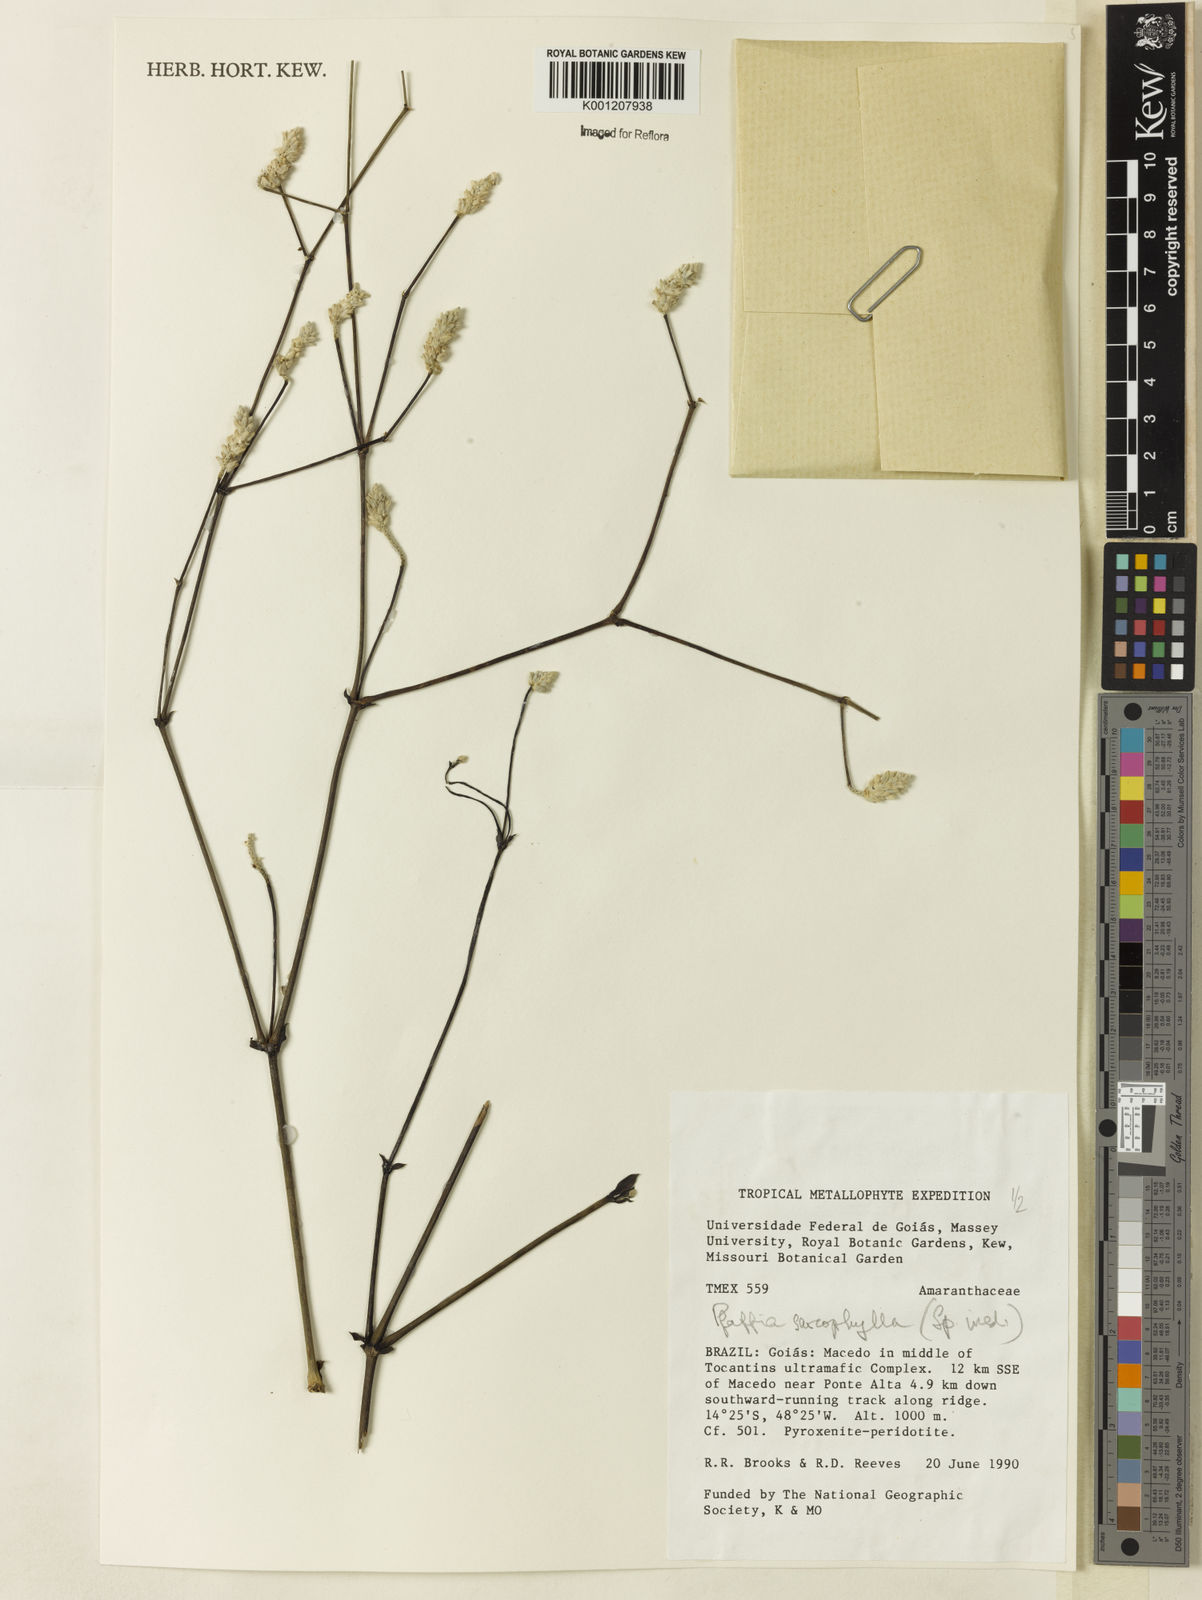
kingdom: Plantae
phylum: Tracheophyta
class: Magnoliopsida
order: Caryophyllales
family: Amaranthaceae
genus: Pfaffia
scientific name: Pfaffia sarcophylla
